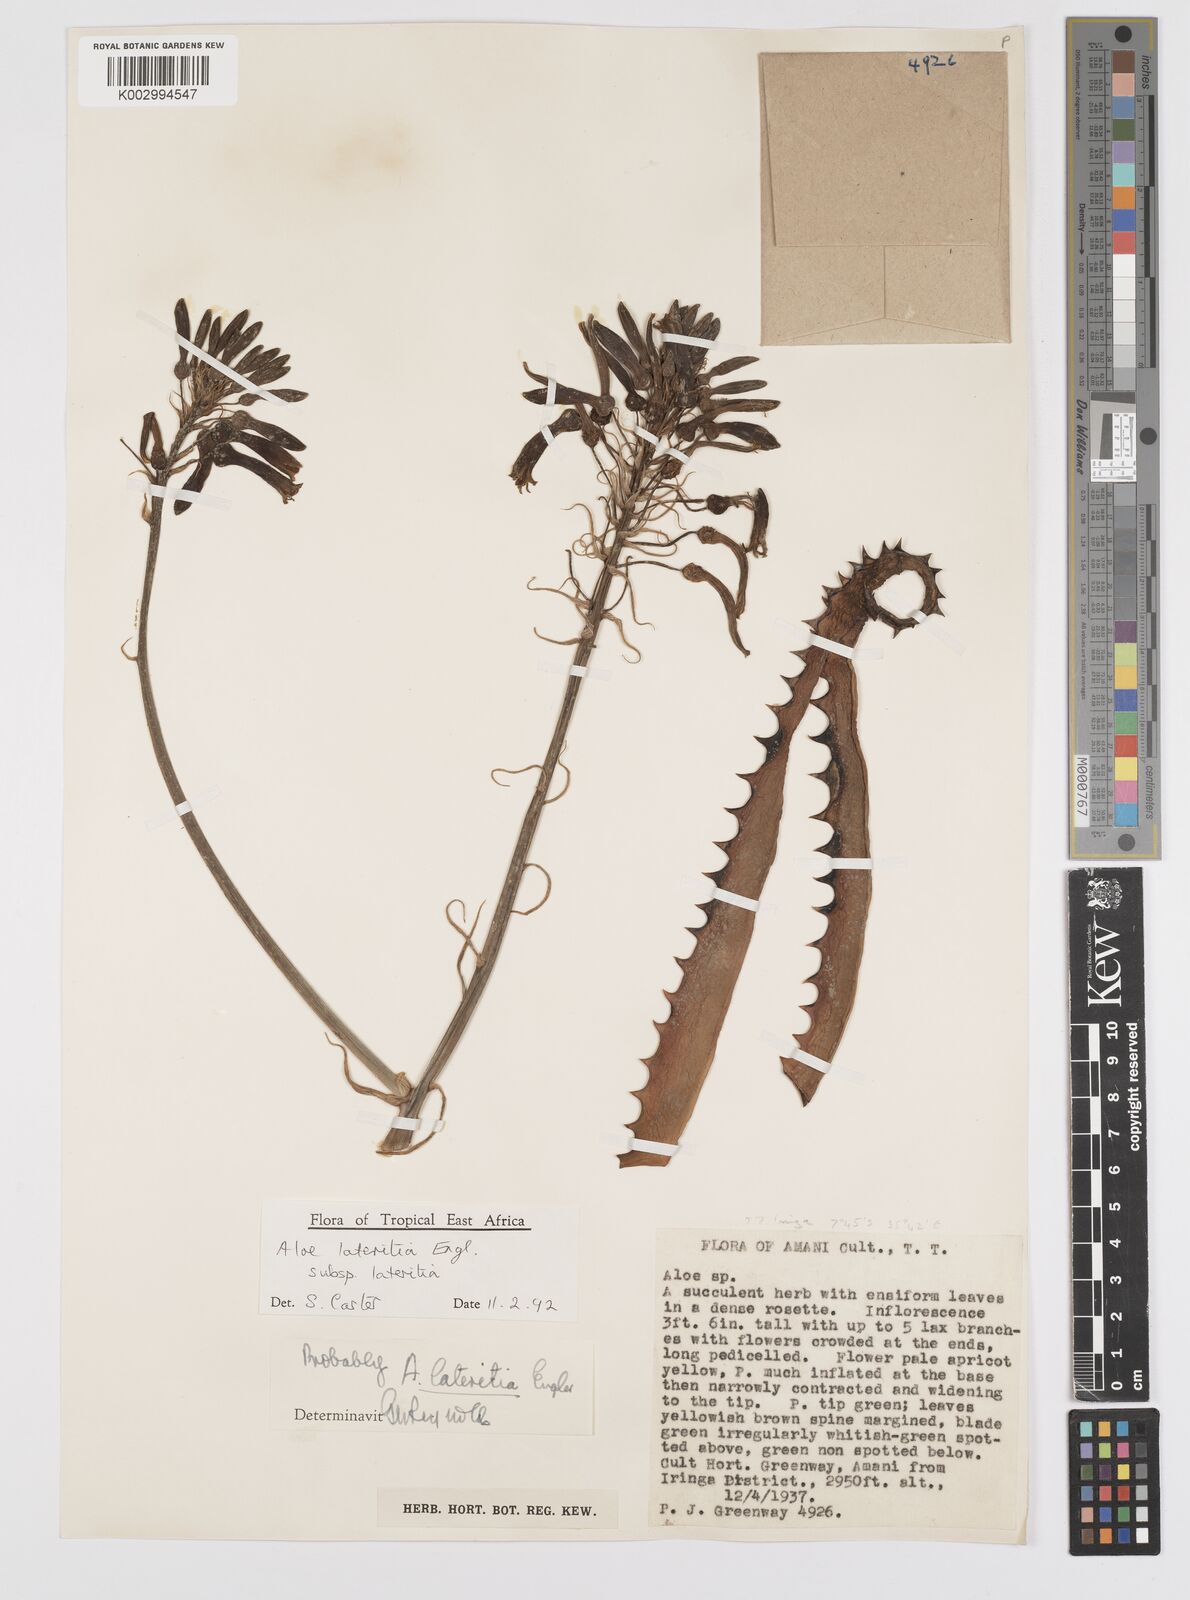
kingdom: Plantae
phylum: Tracheophyta
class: Liliopsida
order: Asparagales
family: Asphodelaceae
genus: Aloe
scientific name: Aloe lateritia
